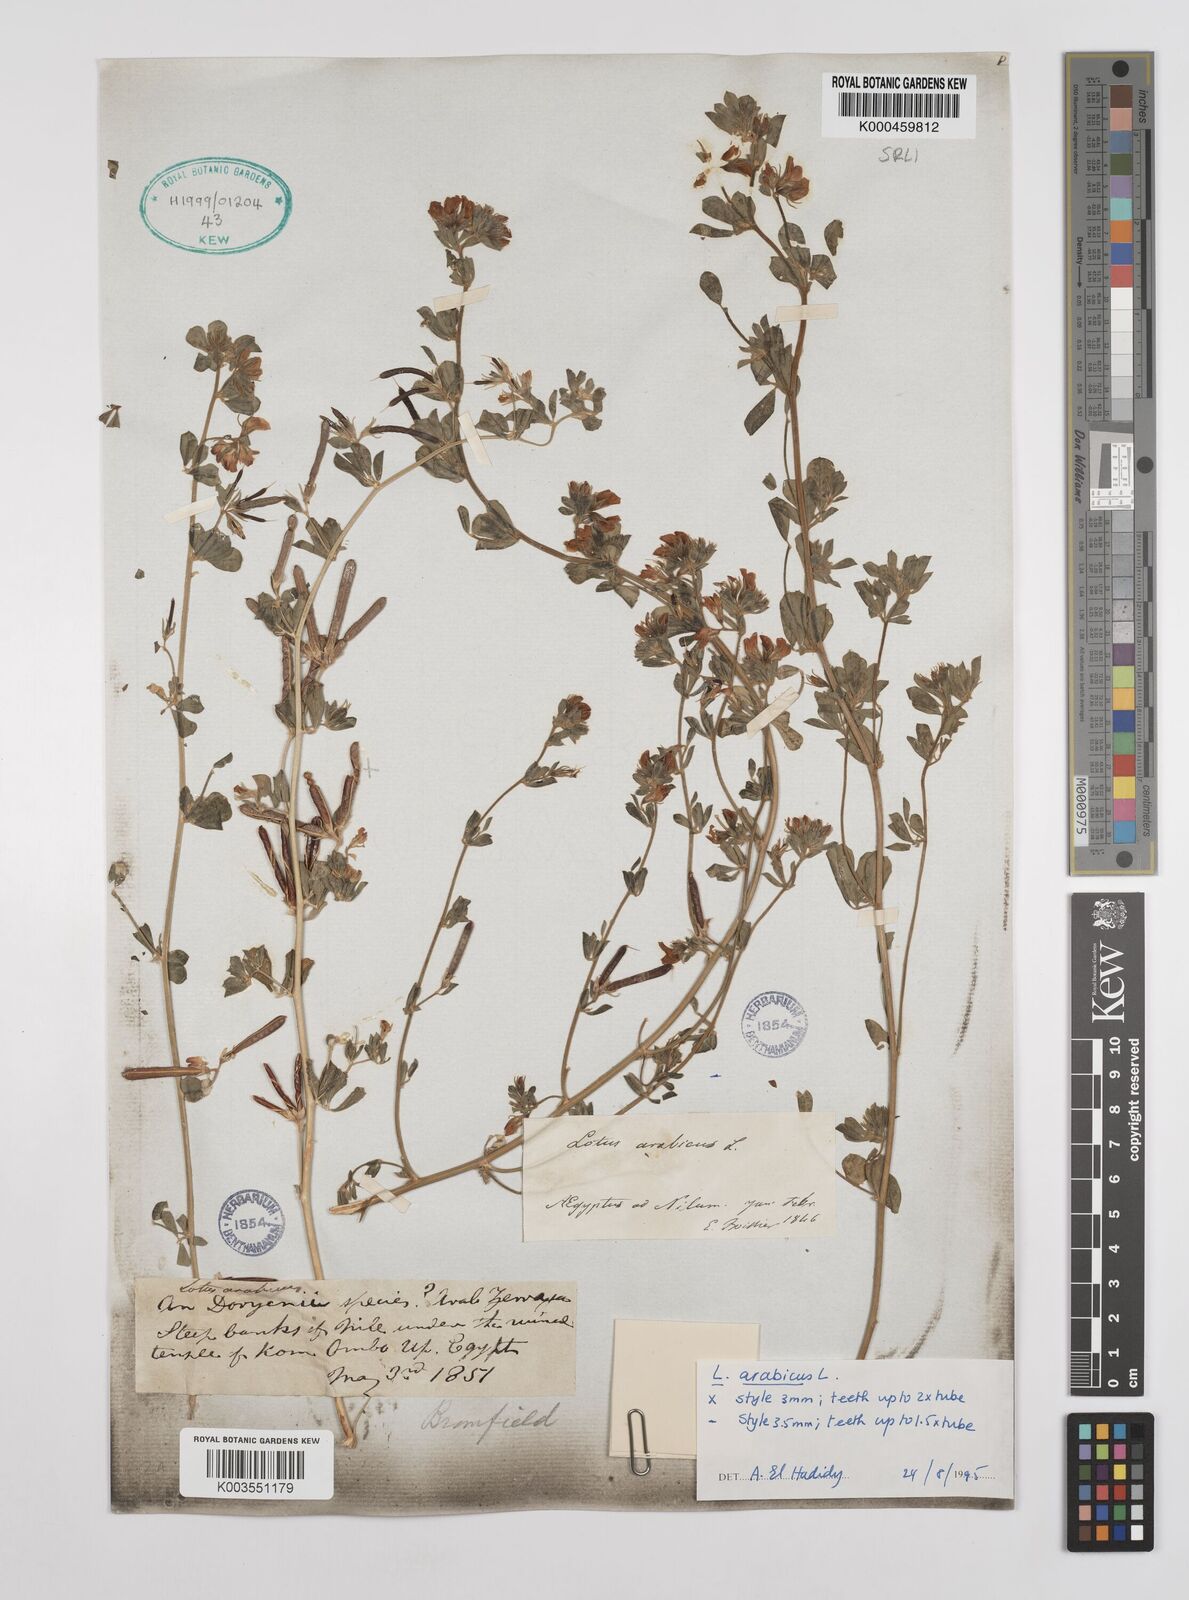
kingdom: Plantae
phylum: Tracheophyta
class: Magnoliopsida
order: Fabales
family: Fabaceae
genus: Lotus
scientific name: Lotus arabicus
